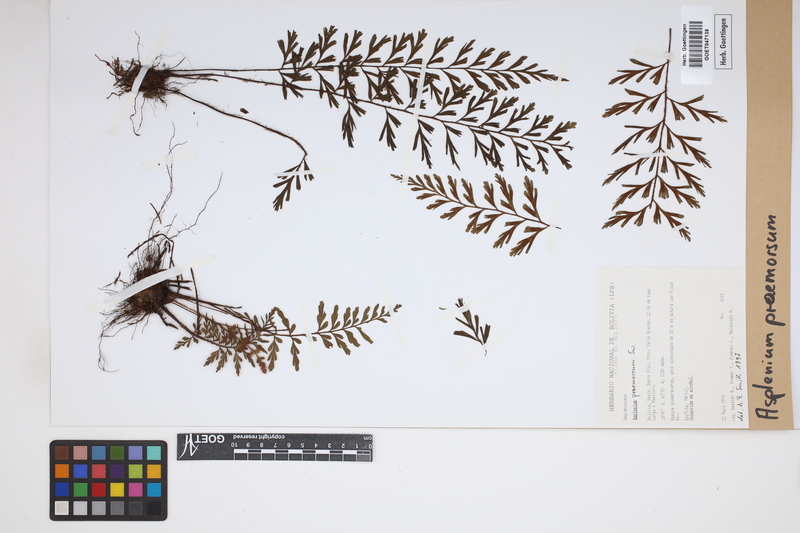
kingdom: Plantae
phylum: Tracheophyta
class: Polypodiopsida
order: Polypodiales
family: Aspleniaceae
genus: Asplenium
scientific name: Asplenium praemorsum
